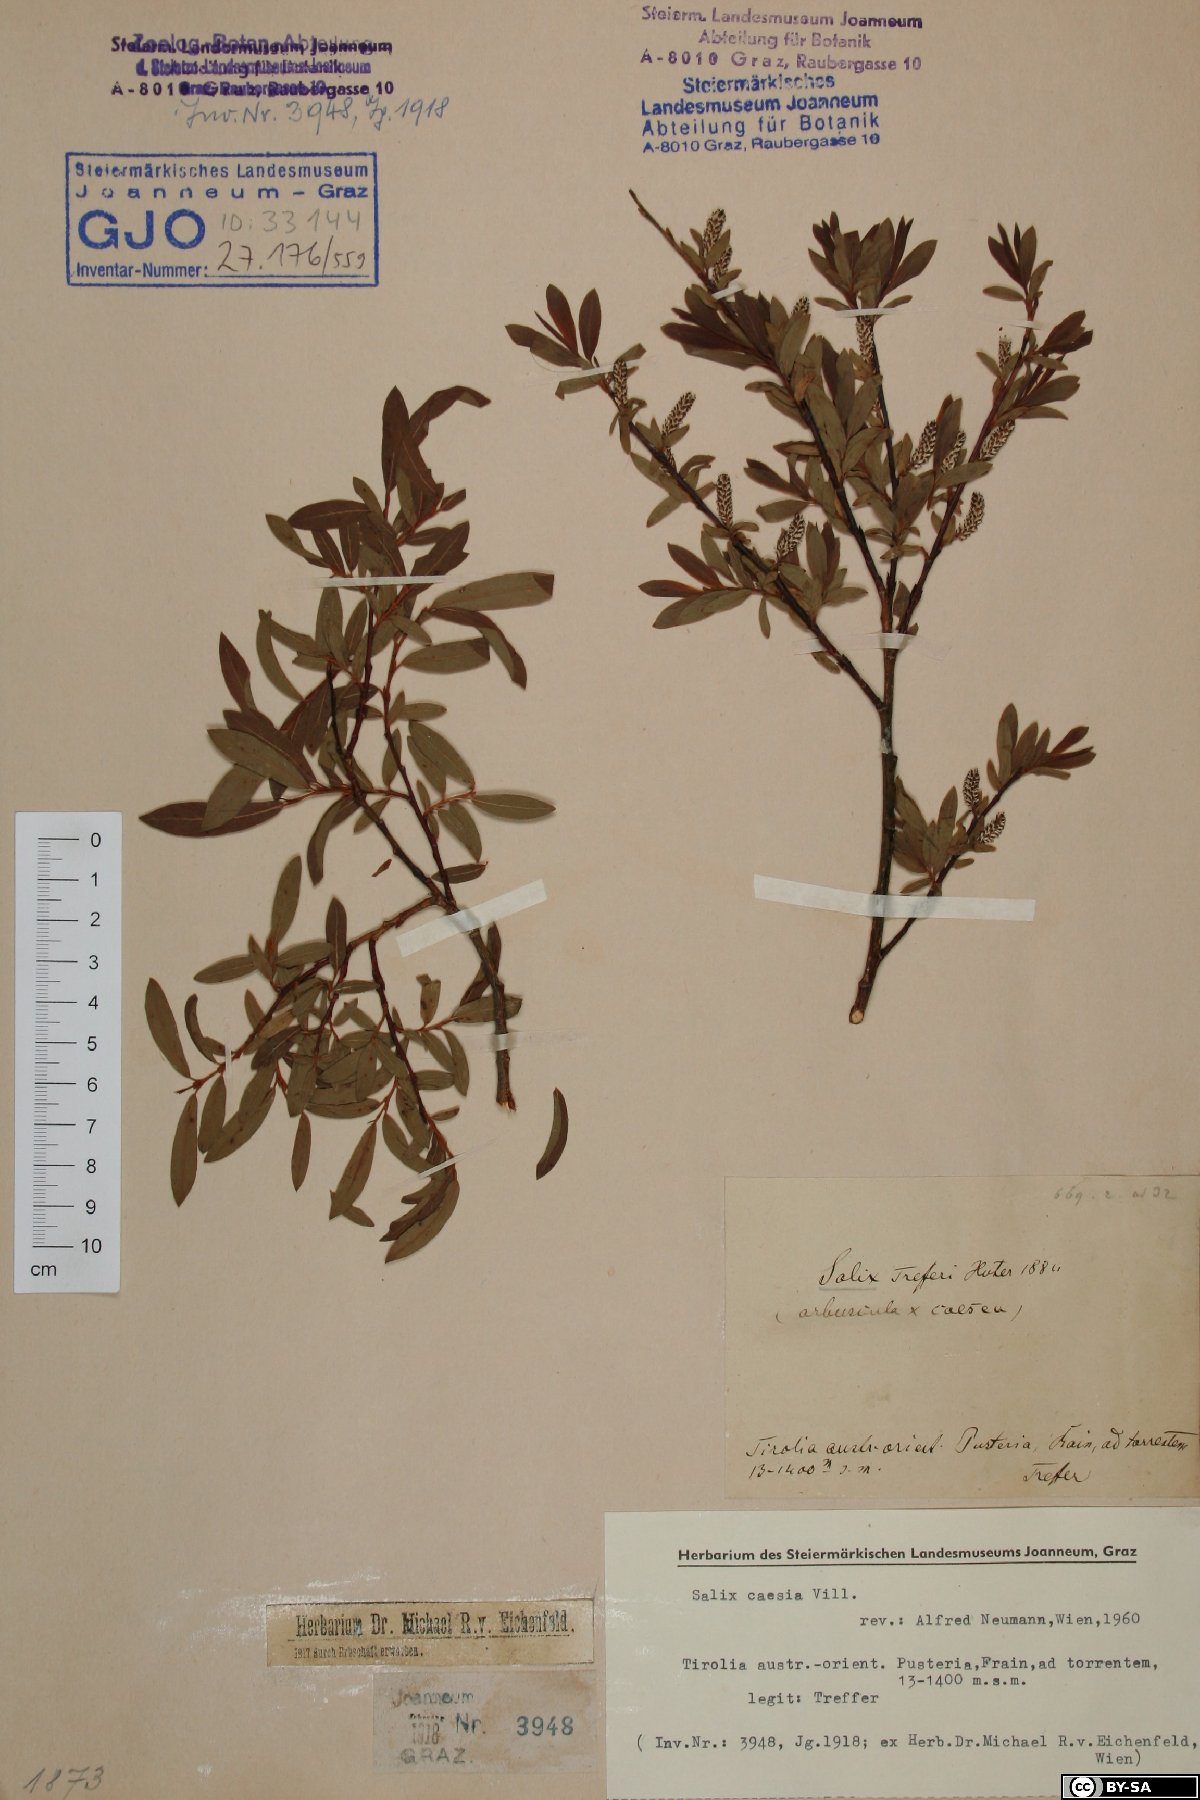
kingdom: Plantae
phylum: Tracheophyta
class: Magnoliopsida
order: Malpighiales
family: Salicaceae
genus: Salix
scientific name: Salix caesia
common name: Blue willow
